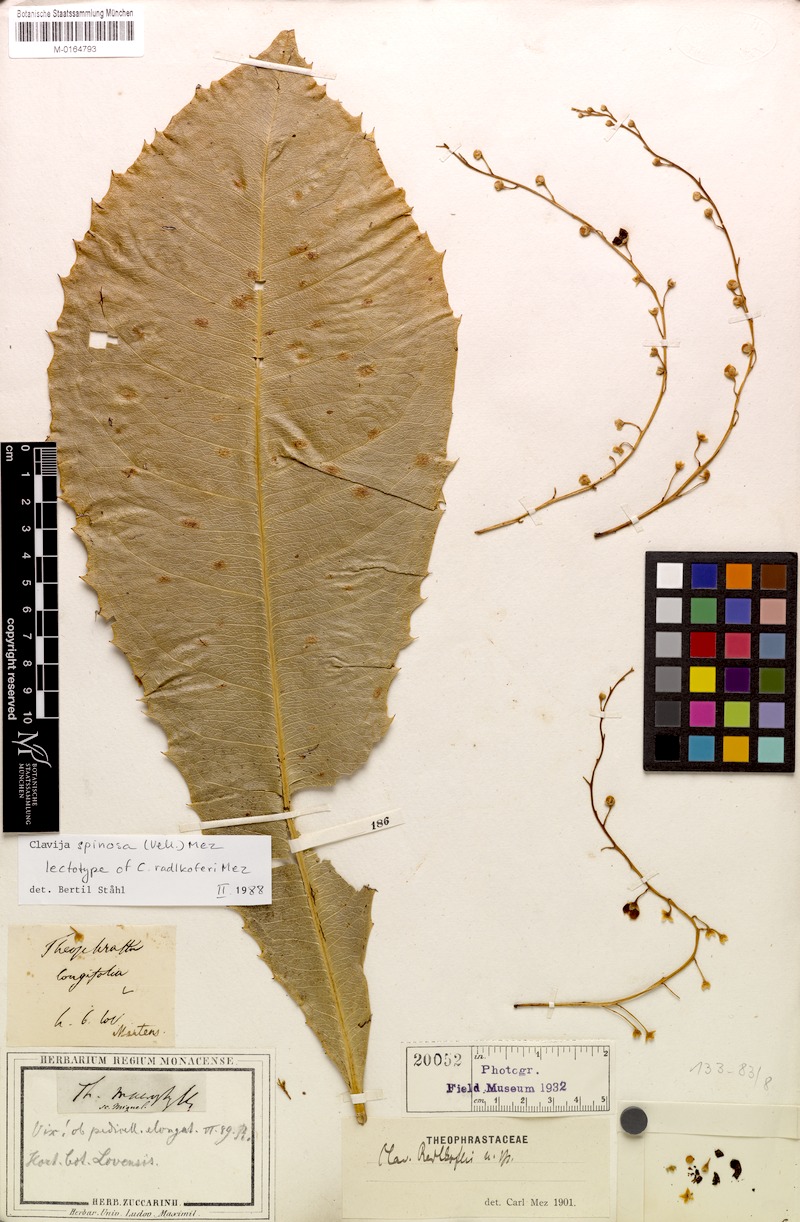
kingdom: Plantae
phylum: Tracheophyta
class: Magnoliopsida
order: Ericales
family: Primulaceae
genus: Clavija
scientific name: Clavija spinosa
